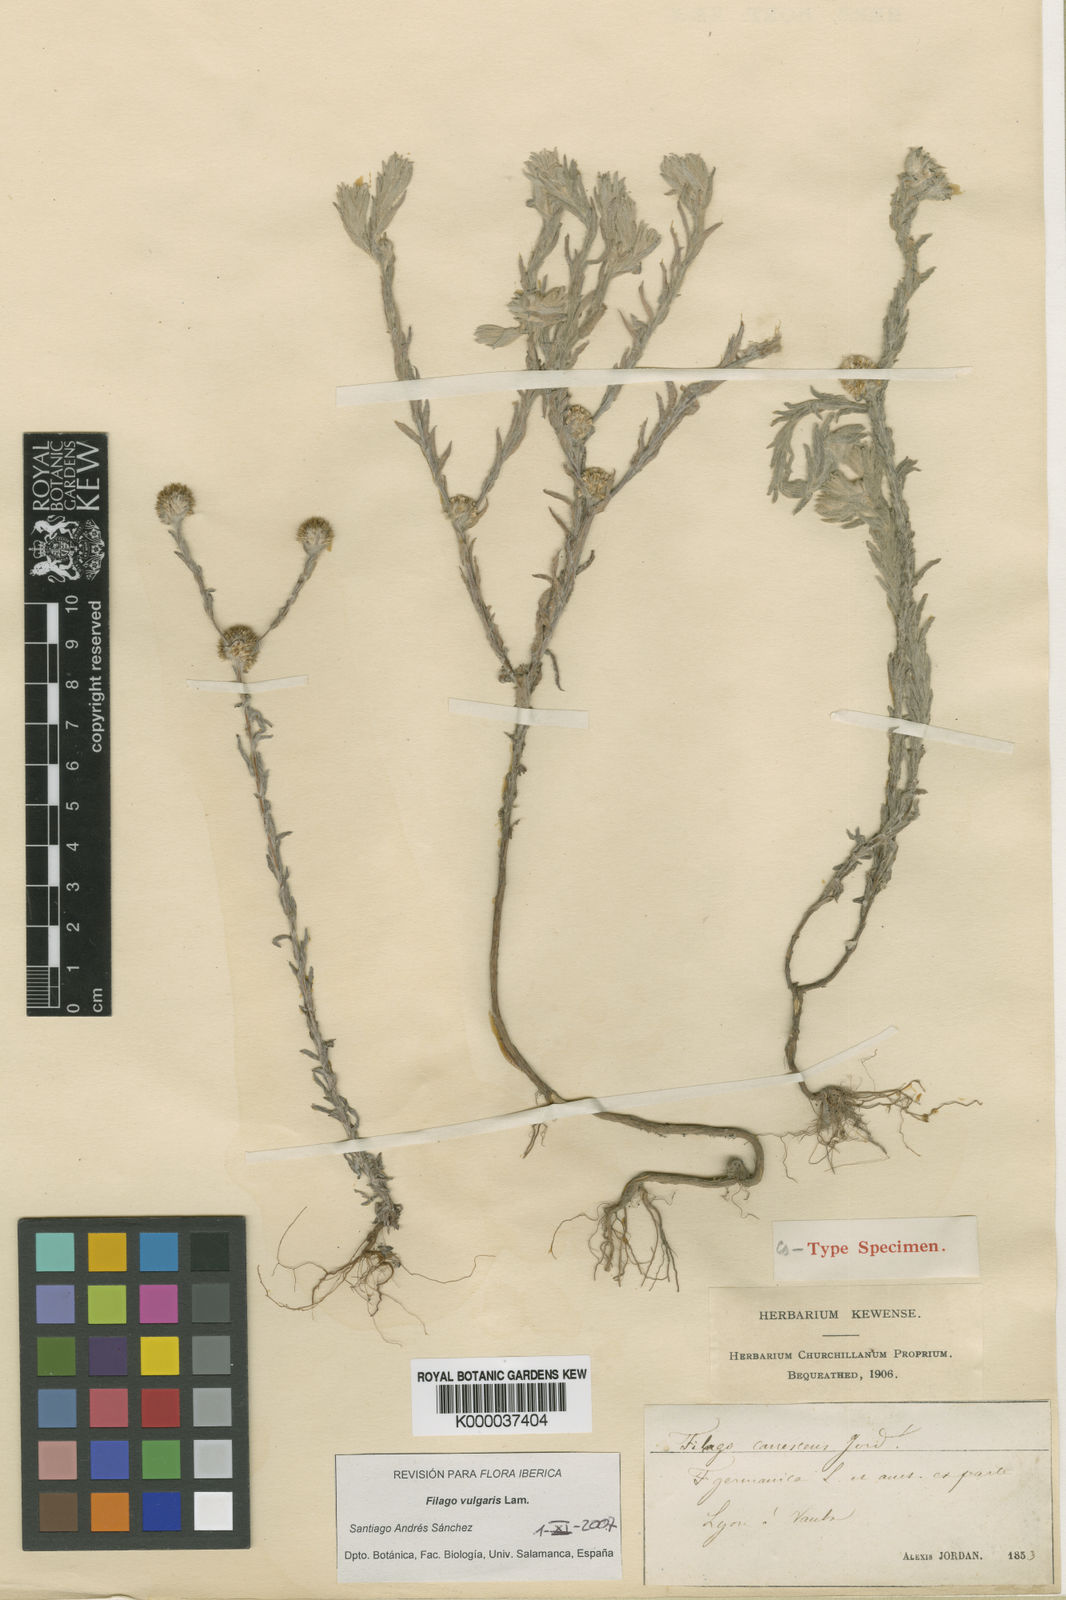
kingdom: Plantae
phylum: Tracheophyta
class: Magnoliopsida
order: Asterales
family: Asteraceae
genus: Filago
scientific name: Filago germanica
